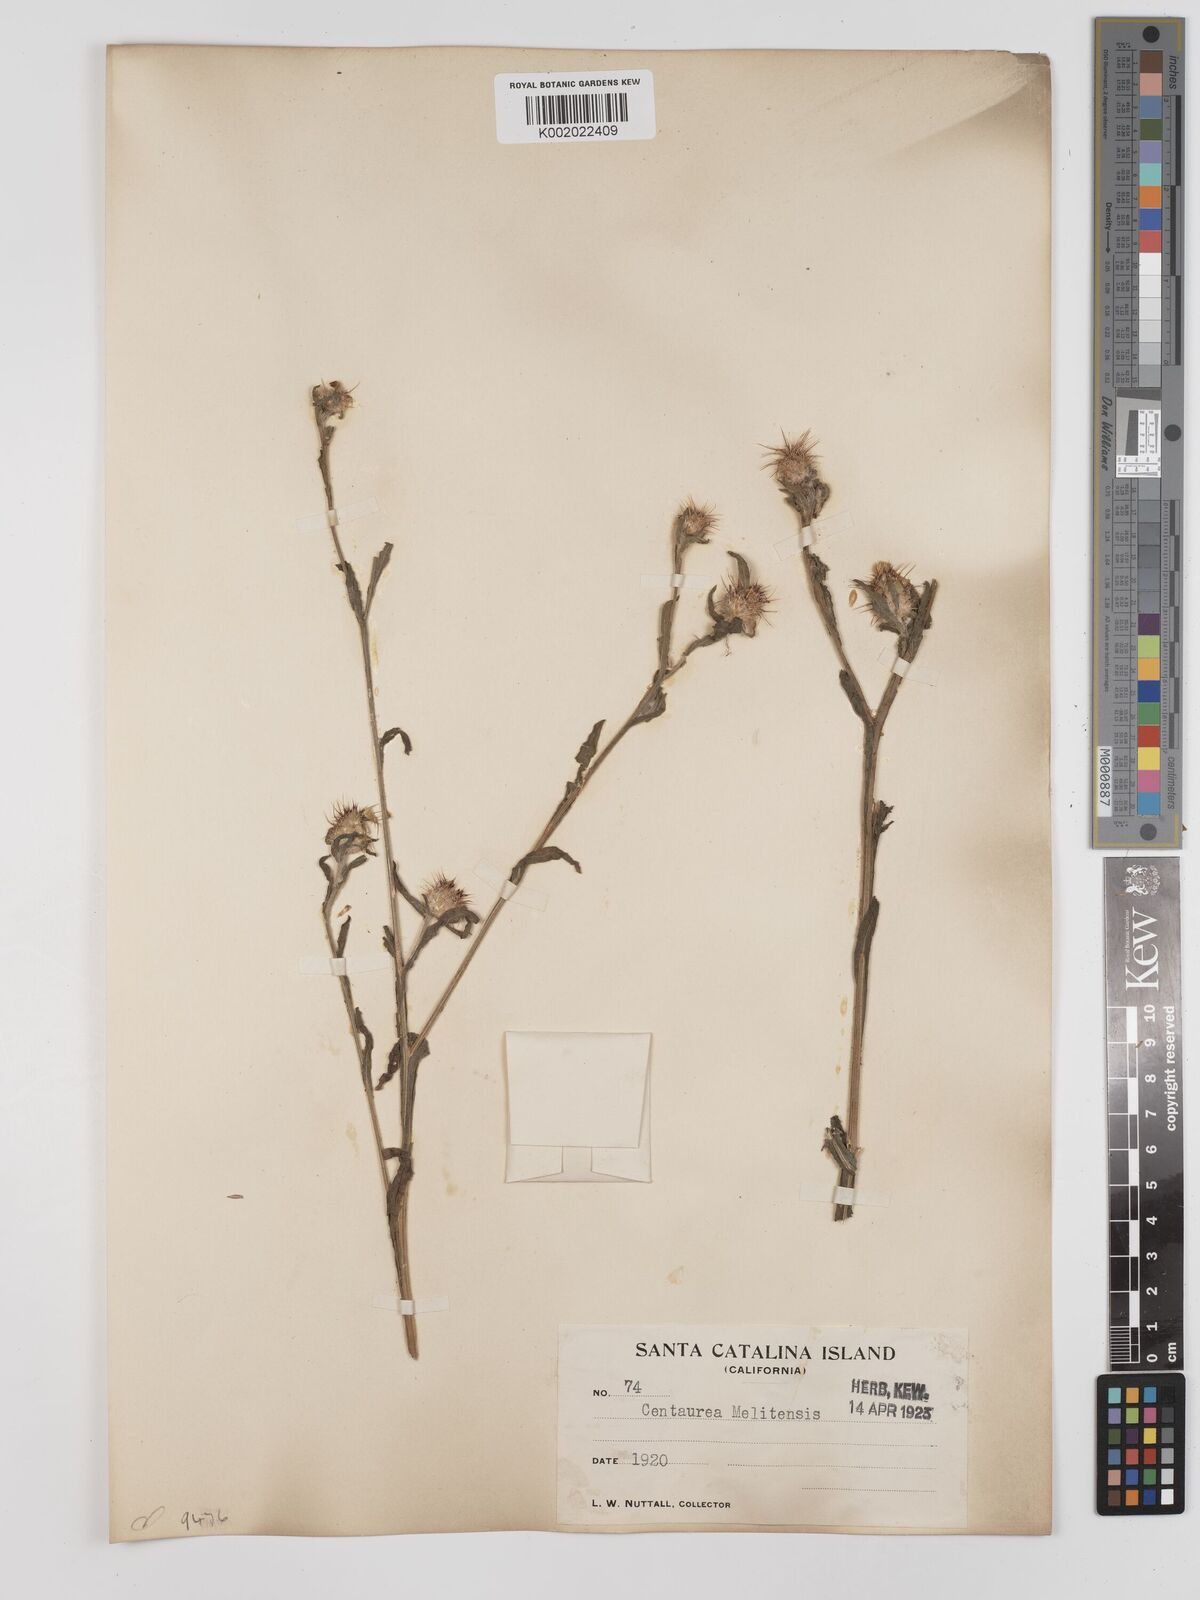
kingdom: Plantae
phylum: Tracheophyta
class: Magnoliopsida
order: Asterales
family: Asteraceae
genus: Centaurea
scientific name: Centaurea melitensis
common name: Maltese star-thistle
